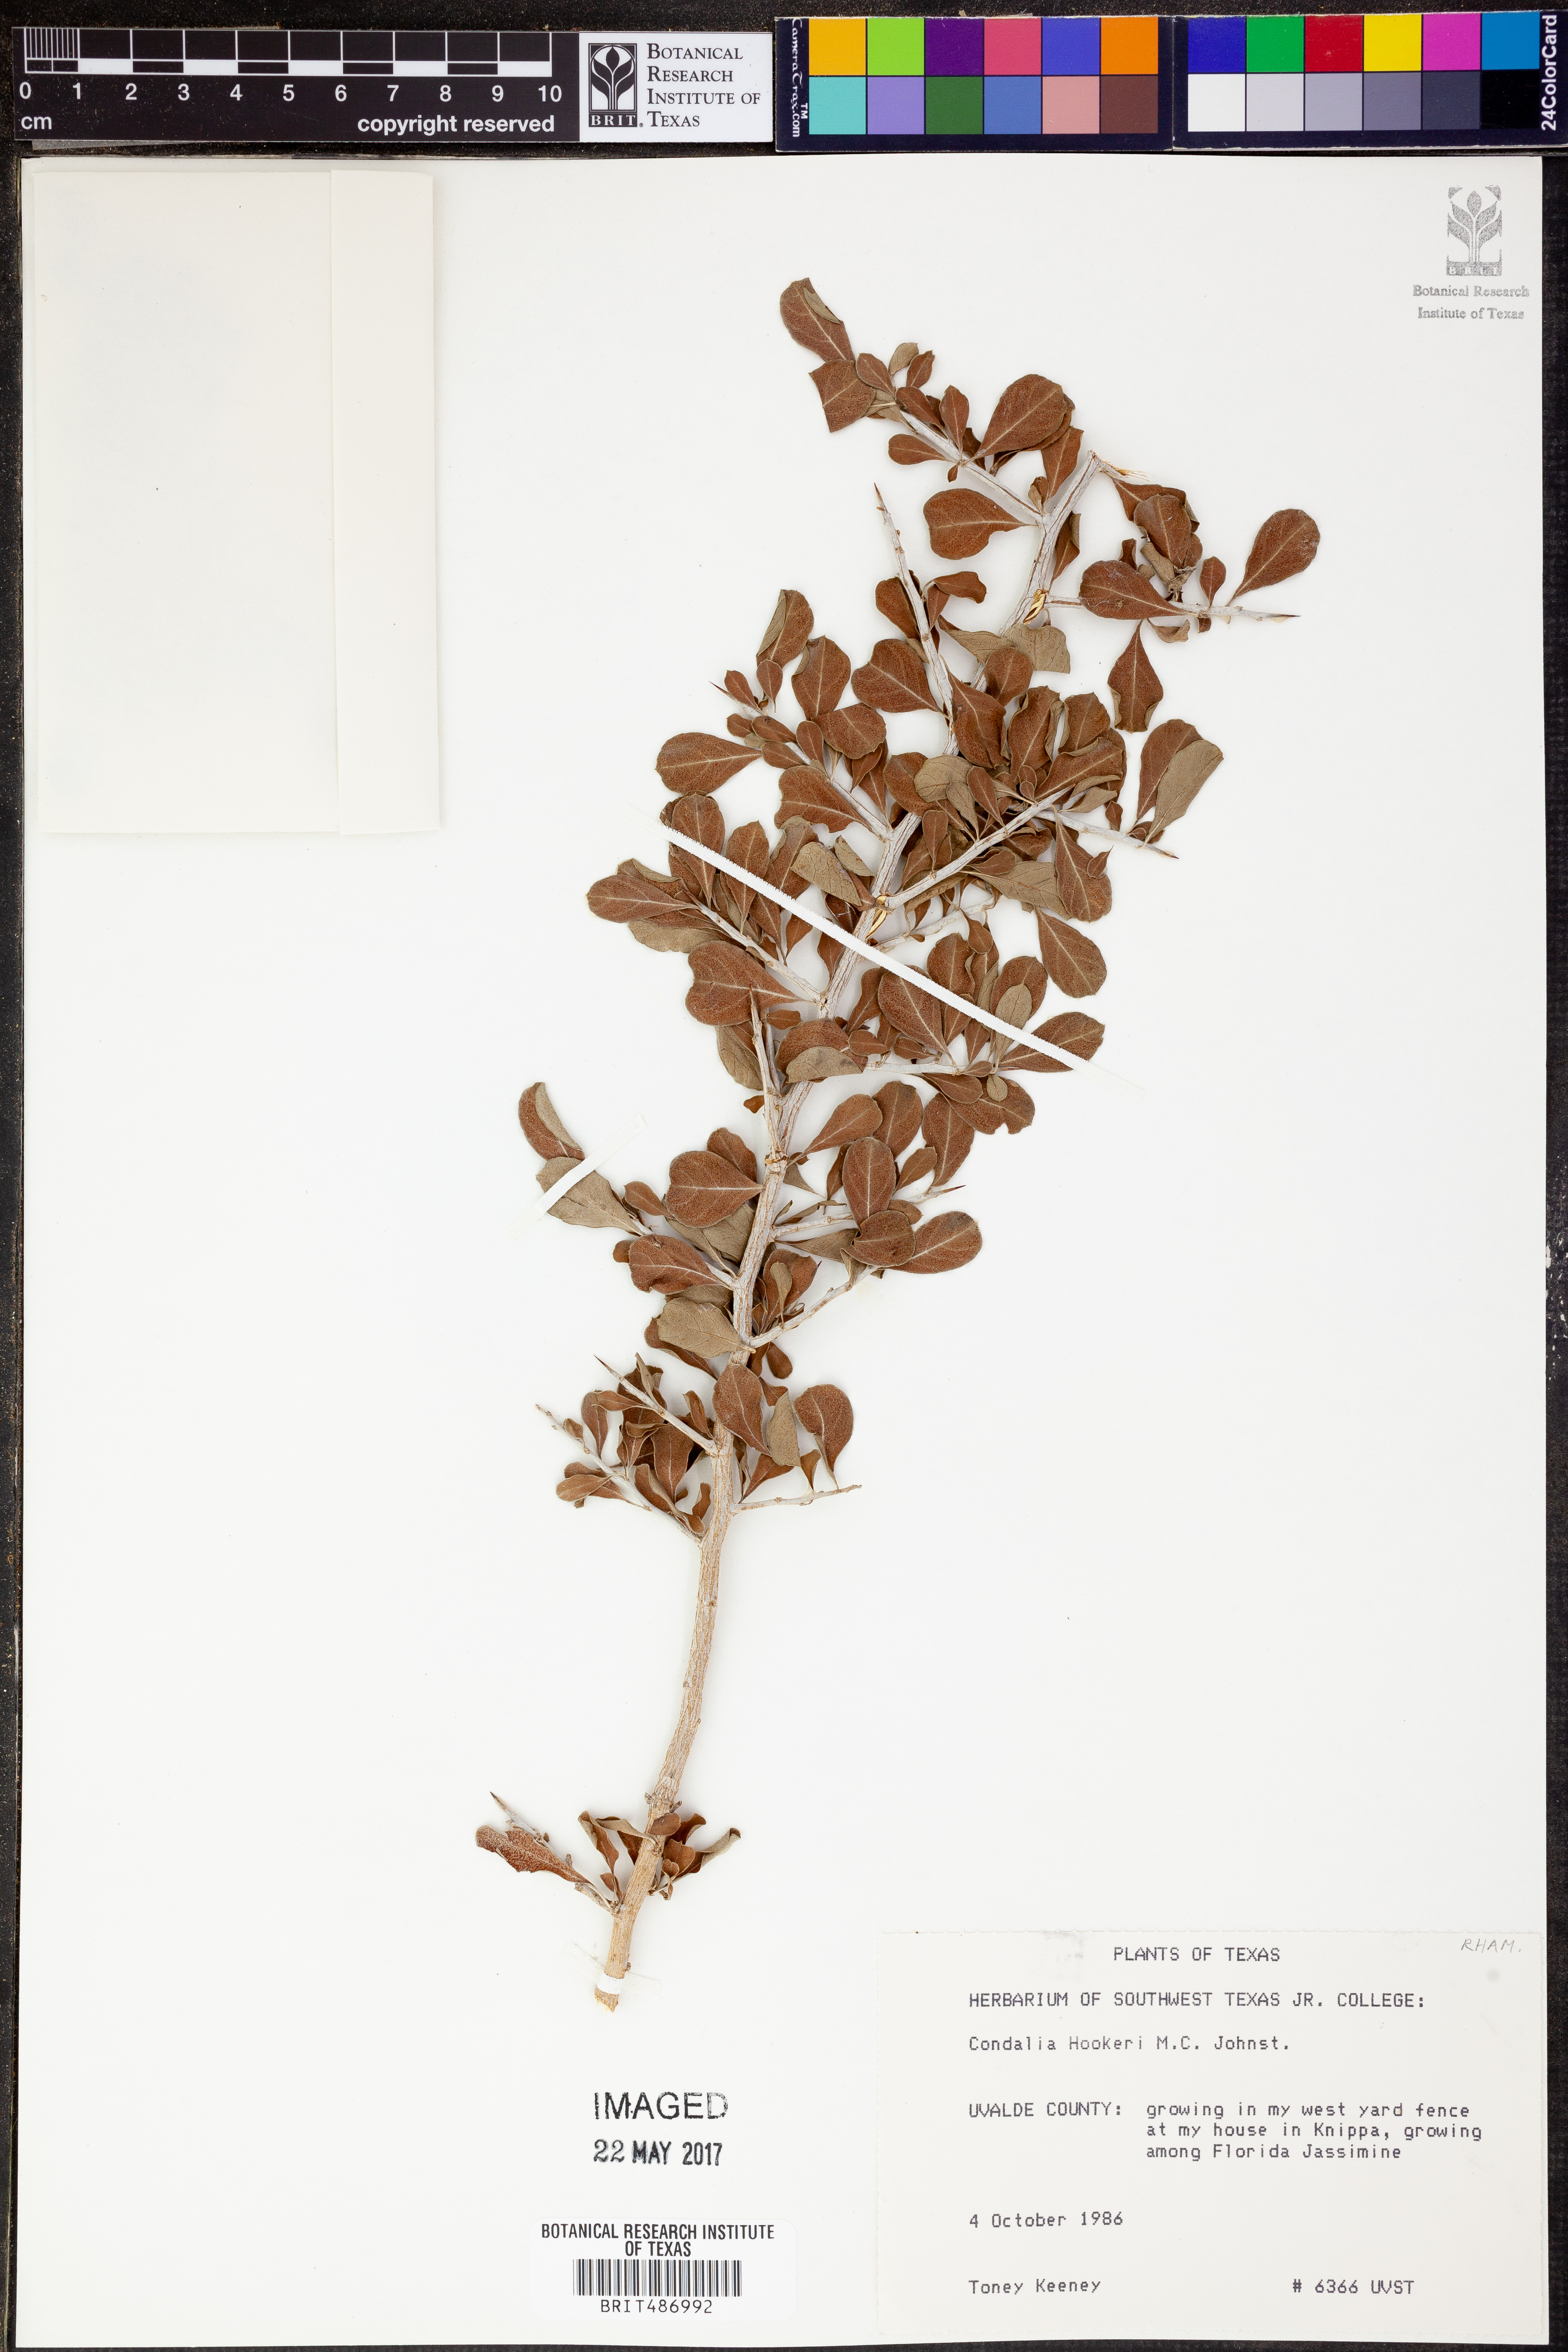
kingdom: Plantae
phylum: Tracheophyta
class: Magnoliopsida
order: Rosales
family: Rhamnaceae
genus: Condalia
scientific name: Condalia hookeri
